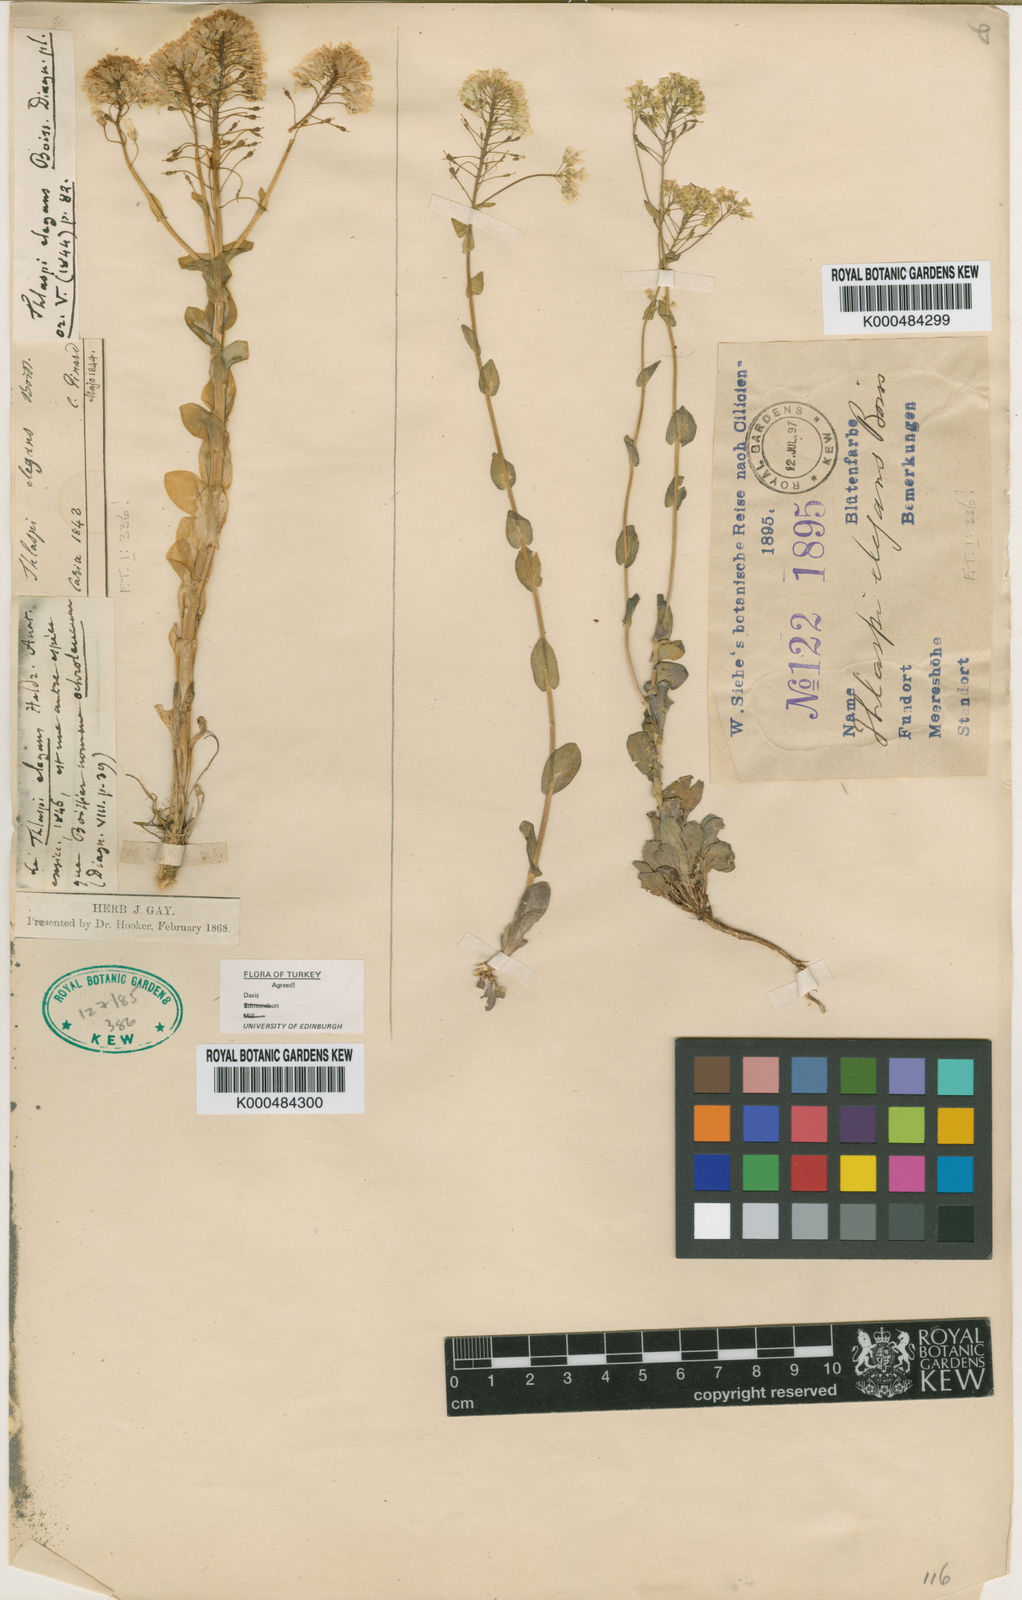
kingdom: Plantae
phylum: Tracheophyta
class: Magnoliopsida
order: Brassicales
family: Brassicaceae
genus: Noccaea
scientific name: Noccaea elegans
